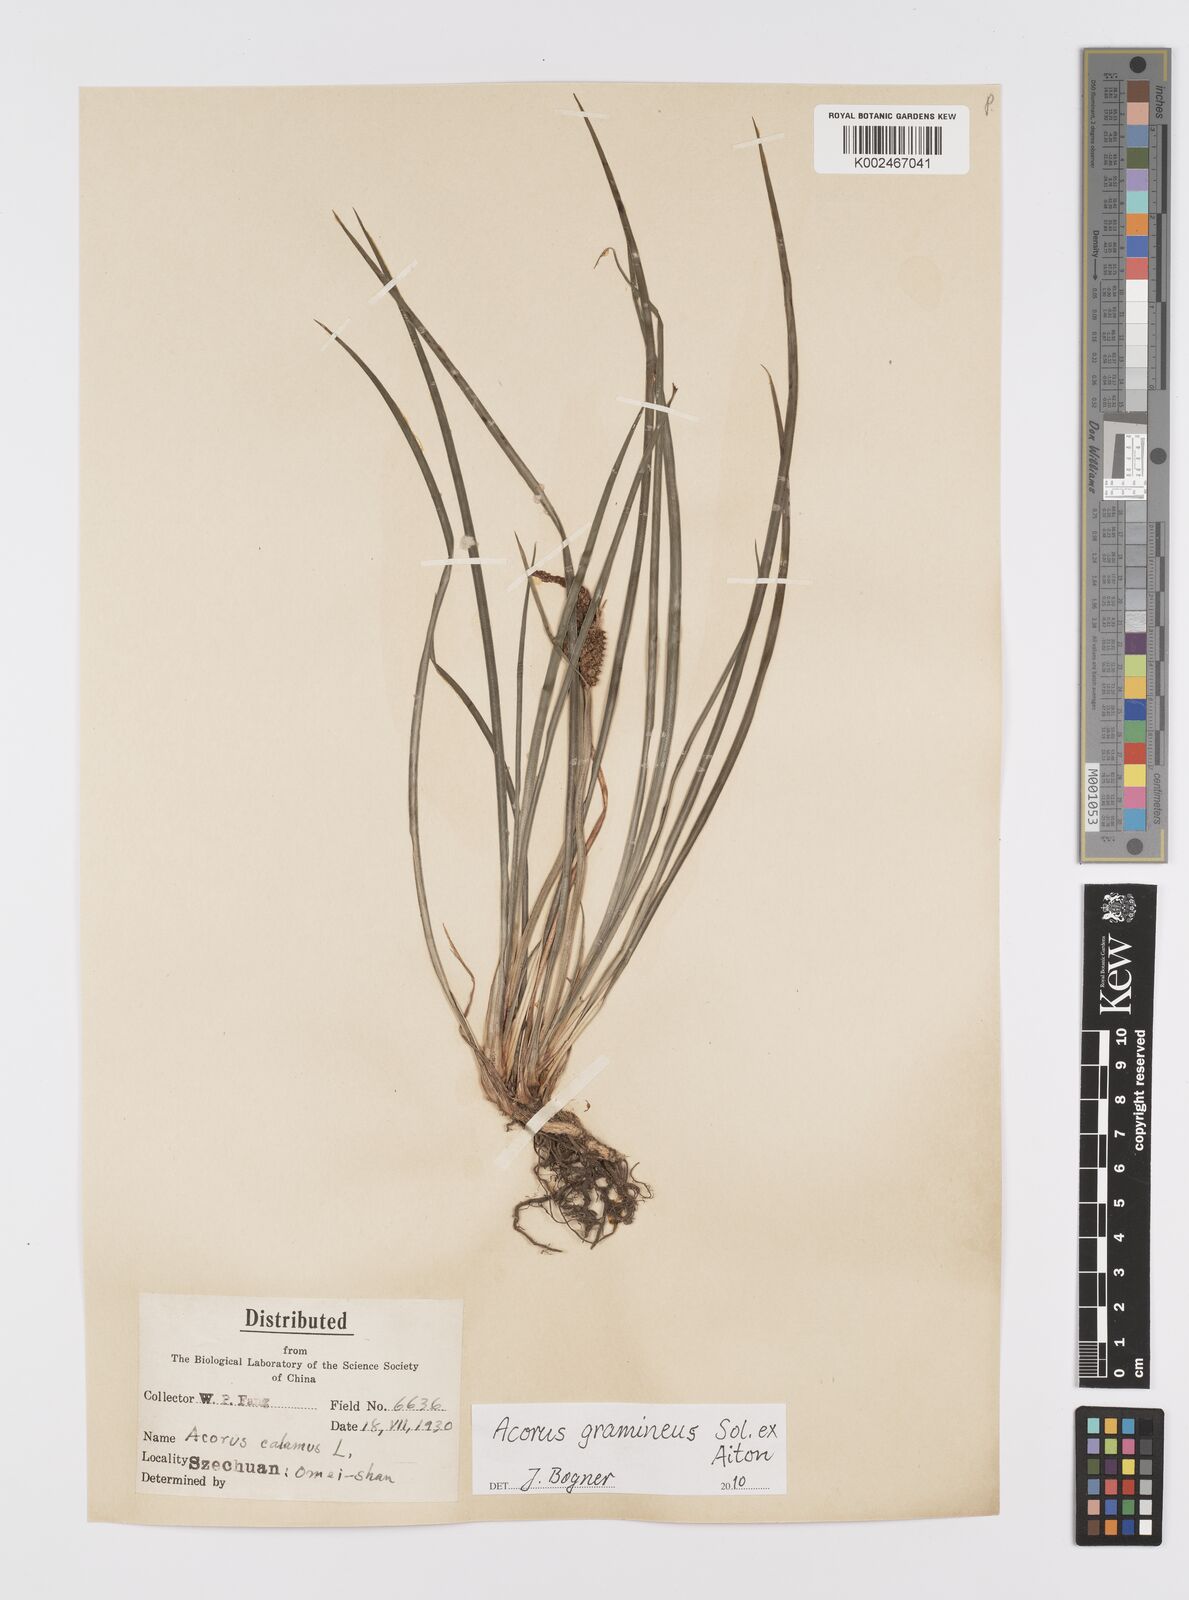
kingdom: Plantae
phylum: Tracheophyta
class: Liliopsida
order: Acorales
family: Acoraceae
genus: Acorus
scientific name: Acorus gramineus
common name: Slender sweet-flag
